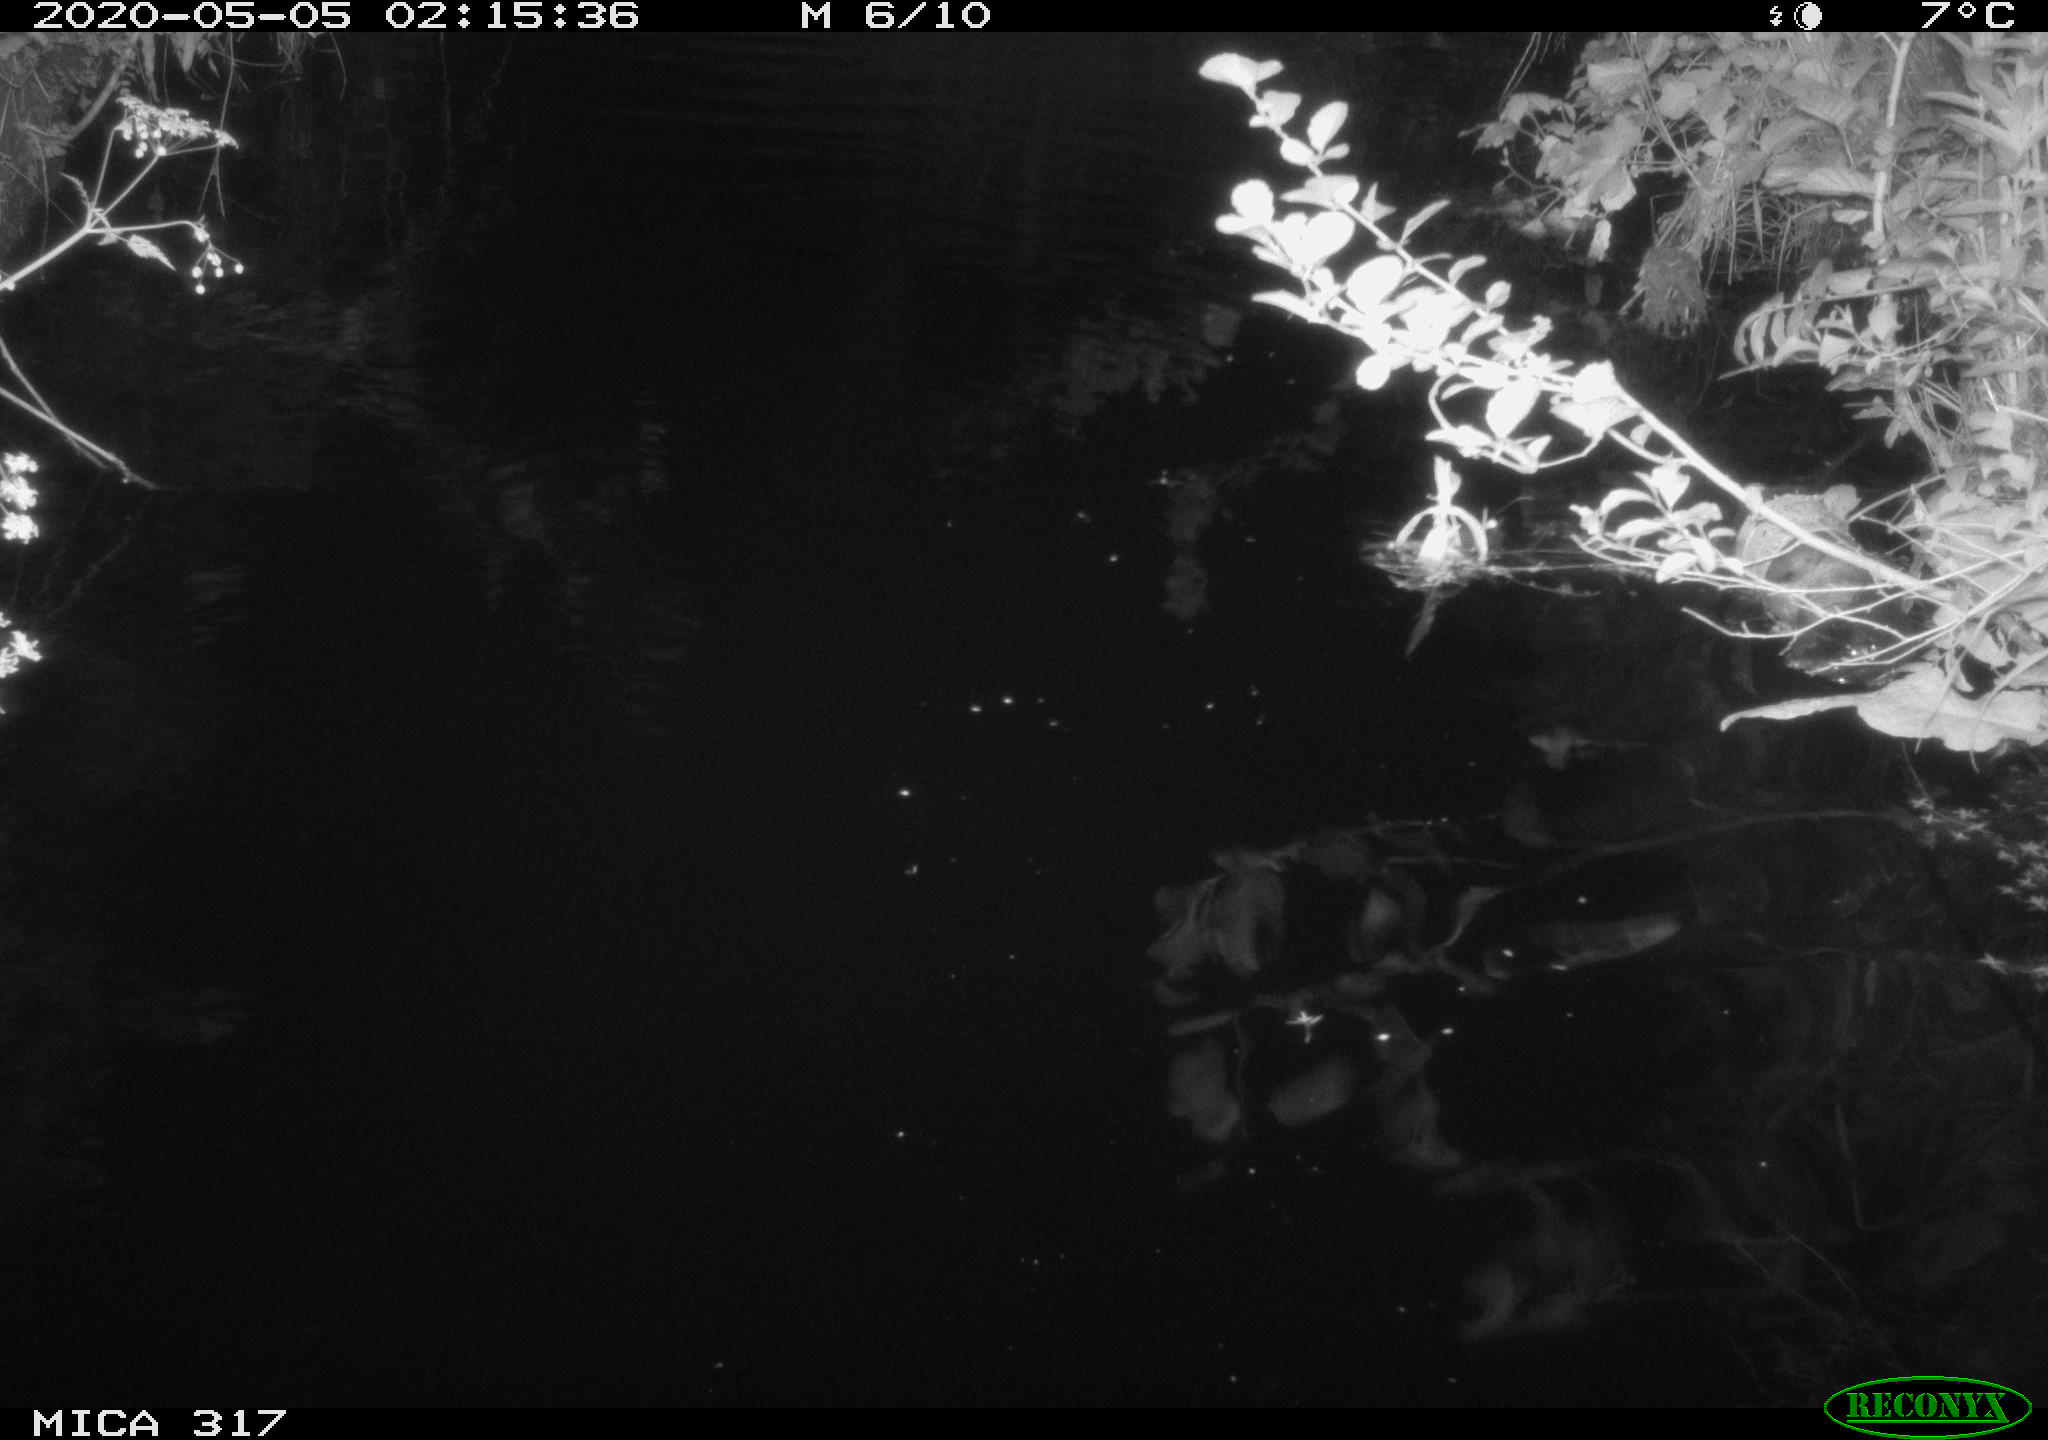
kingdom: Animalia
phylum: Chordata
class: Aves
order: Anseriformes
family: Anatidae
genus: Anas
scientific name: Anas platyrhynchos
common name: Mallard
